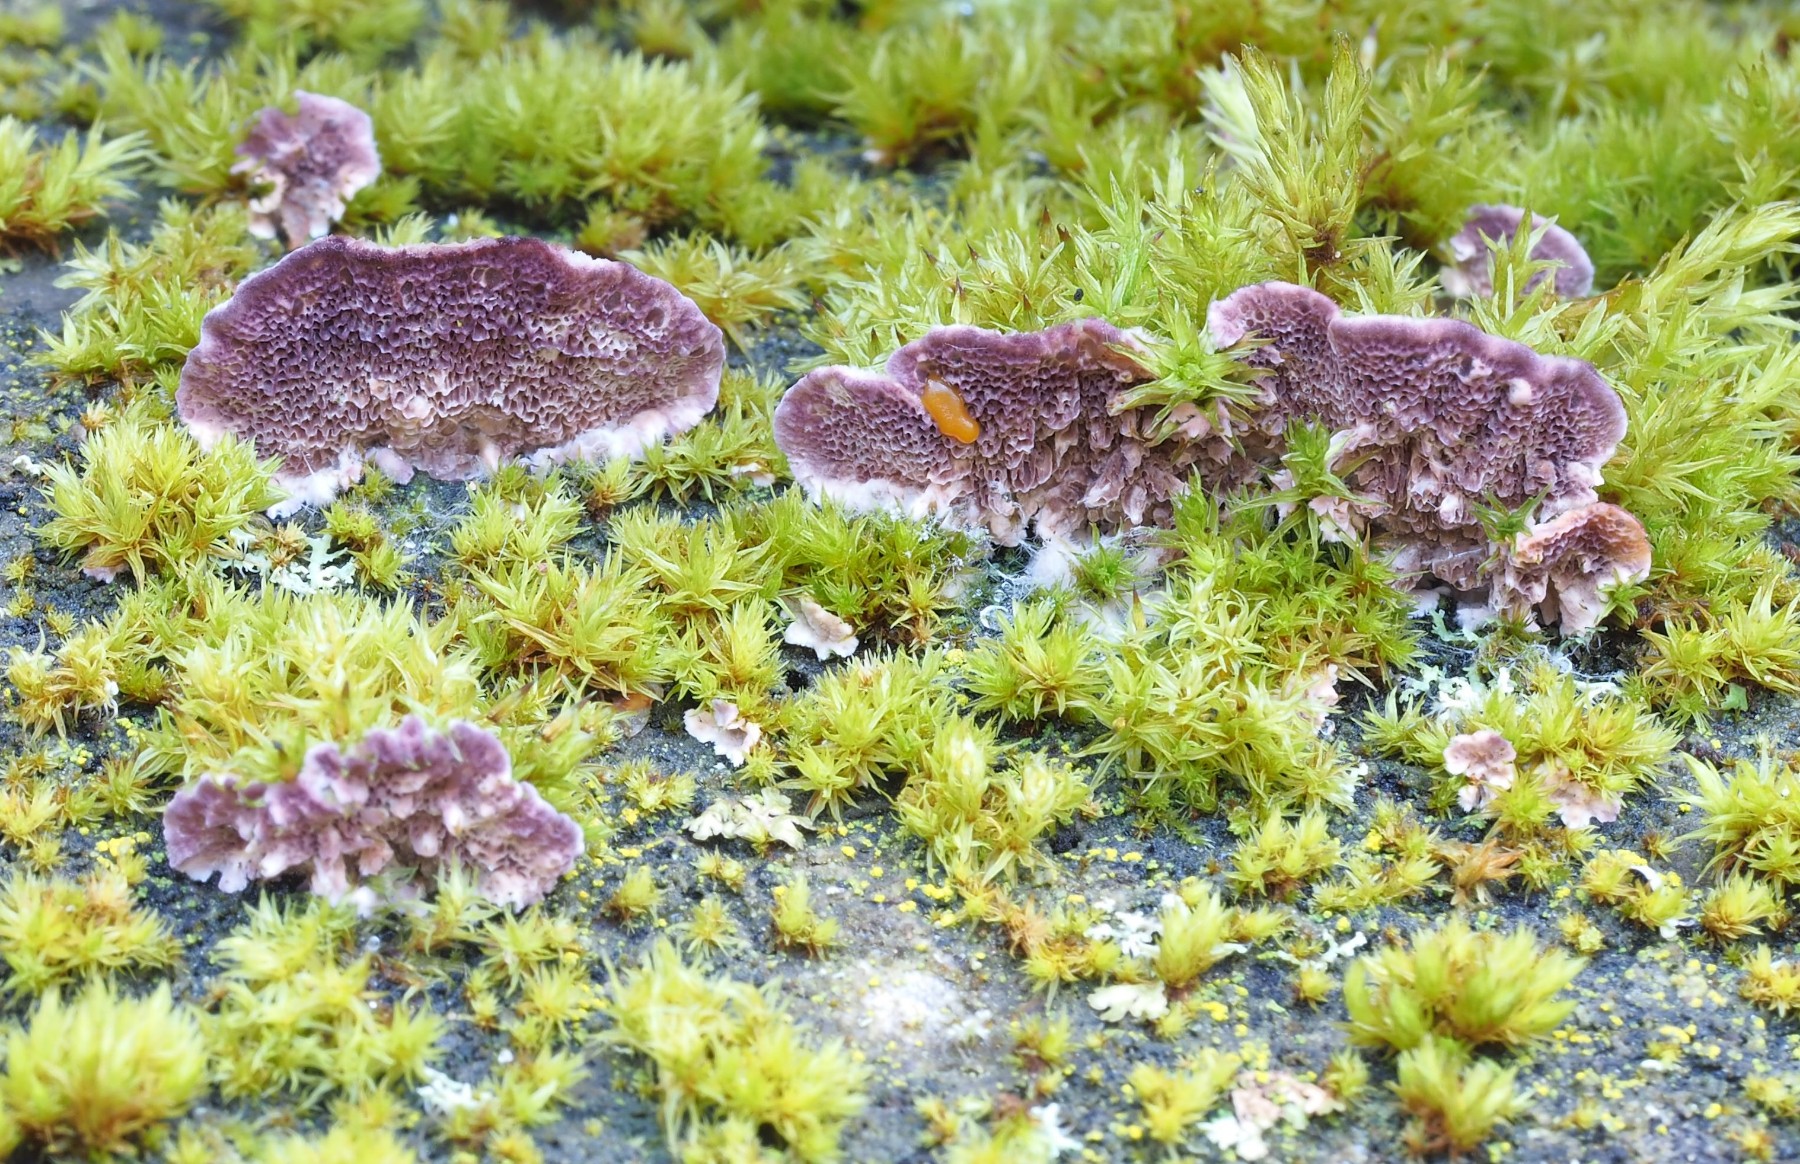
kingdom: Fungi
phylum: Basidiomycota
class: Agaricomycetes
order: Hymenochaetales
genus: Trichaptum
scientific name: Trichaptum abietinum
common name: almindelig violporesvamp
